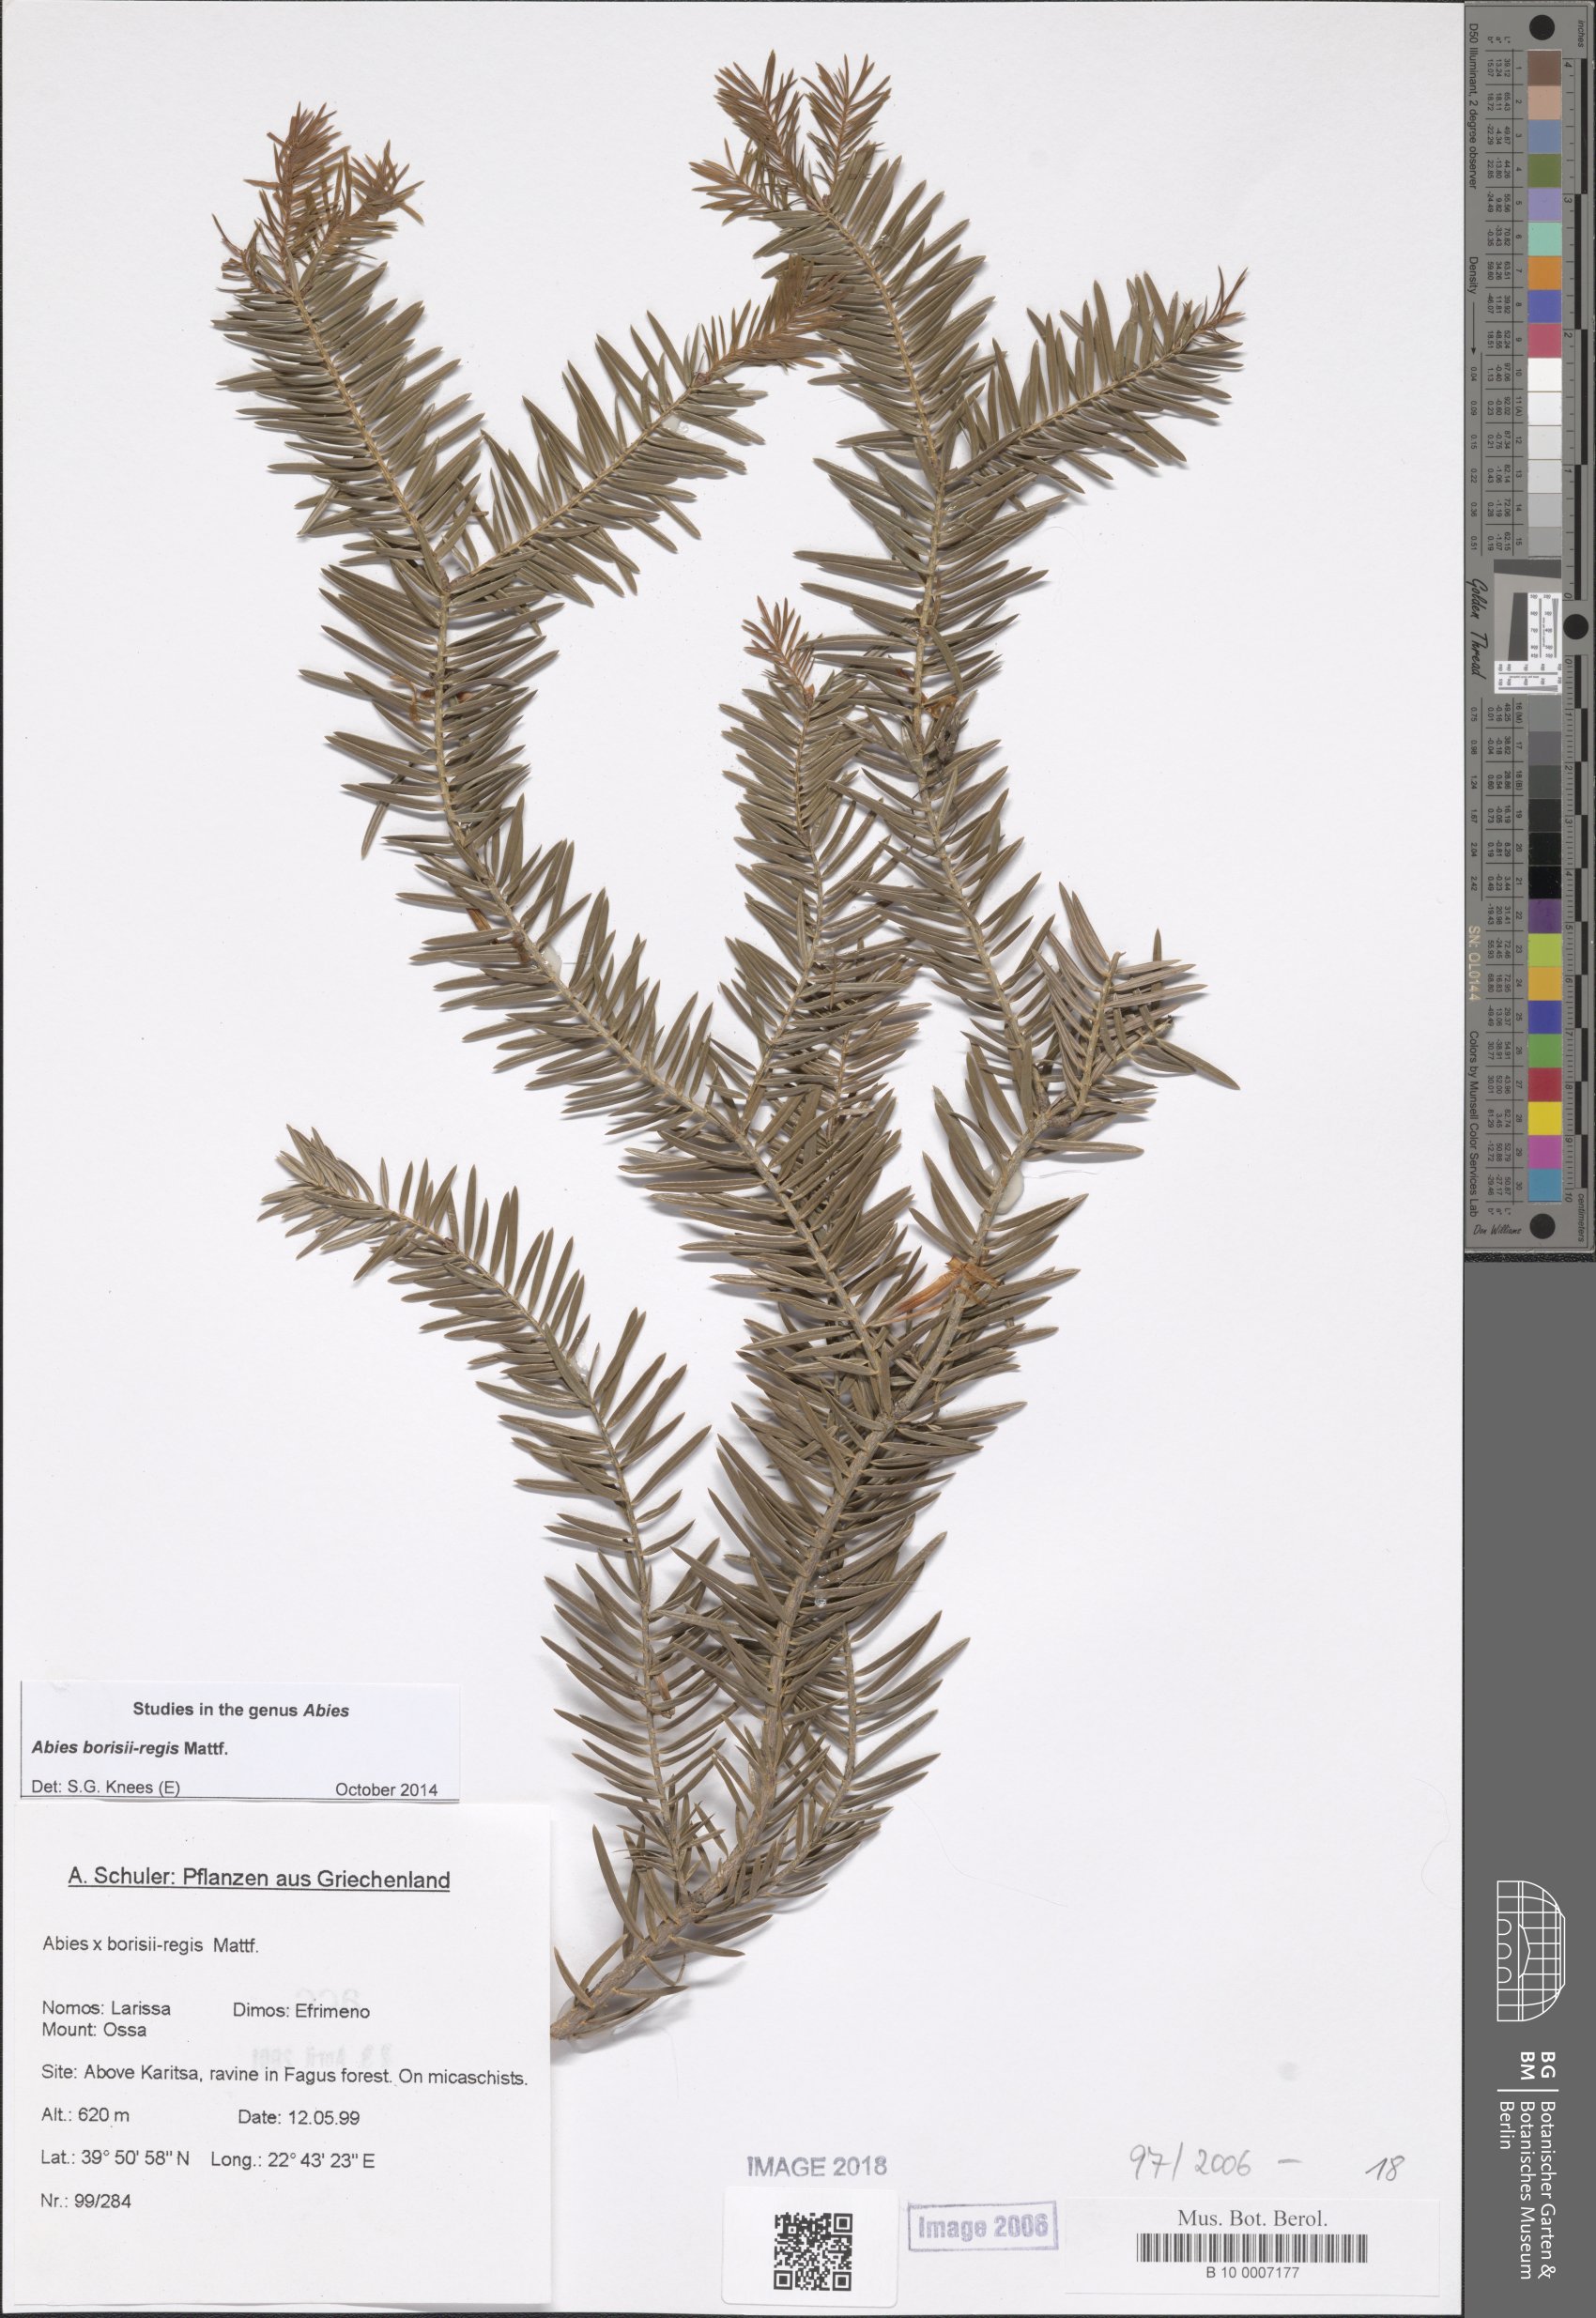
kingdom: Plantae
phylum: Tracheophyta
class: Pinopsida
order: Pinales
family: Pinaceae
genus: Abies
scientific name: Abies borisii-regis
